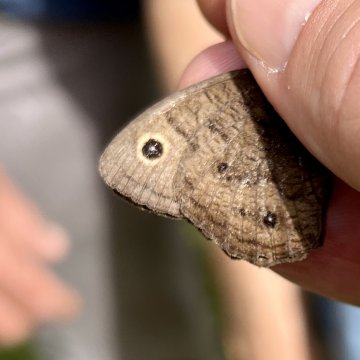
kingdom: Animalia
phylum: Arthropoda
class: Insecta
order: Lepidoptera
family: Nymphalidae
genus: Cercyonis
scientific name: Cercyonis pegala
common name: Common Wood-Nymph
